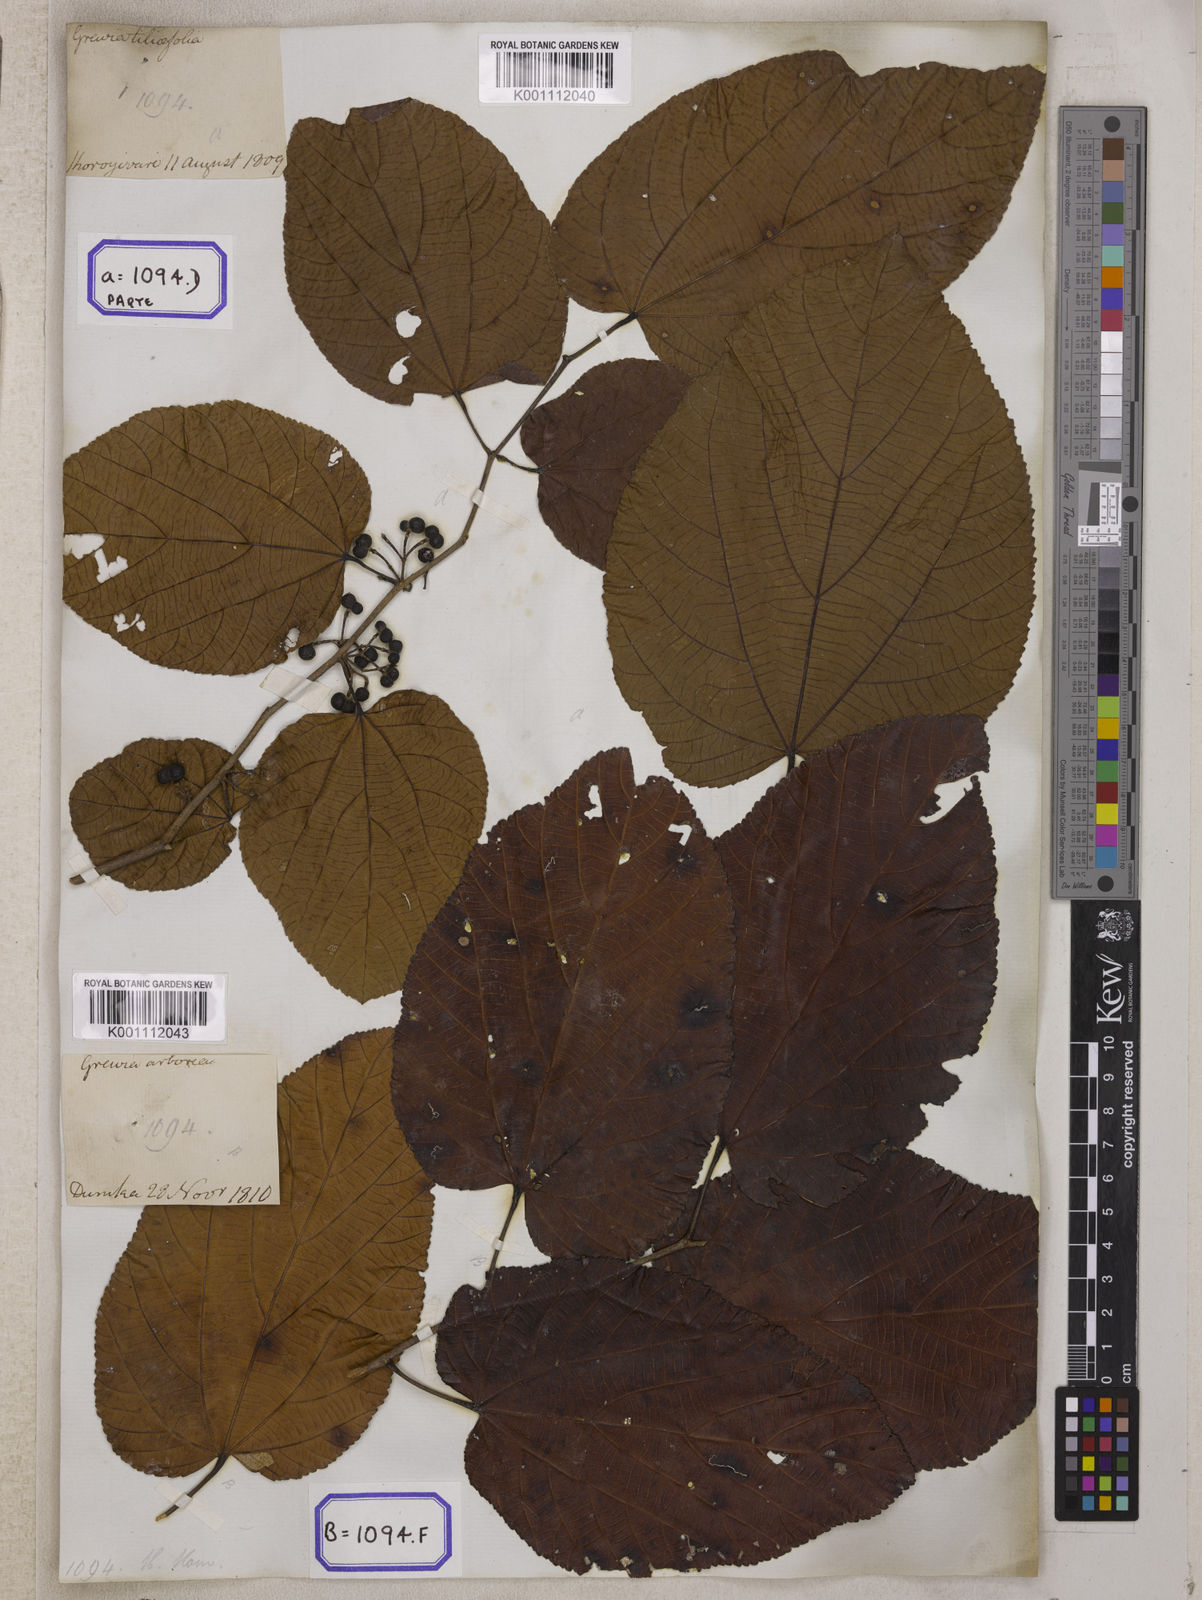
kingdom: Plantae
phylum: Tracheophyta
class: Magnoliopsida
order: Malvales
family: Malvaceae
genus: Grewia
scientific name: Grewia tiliifolia
